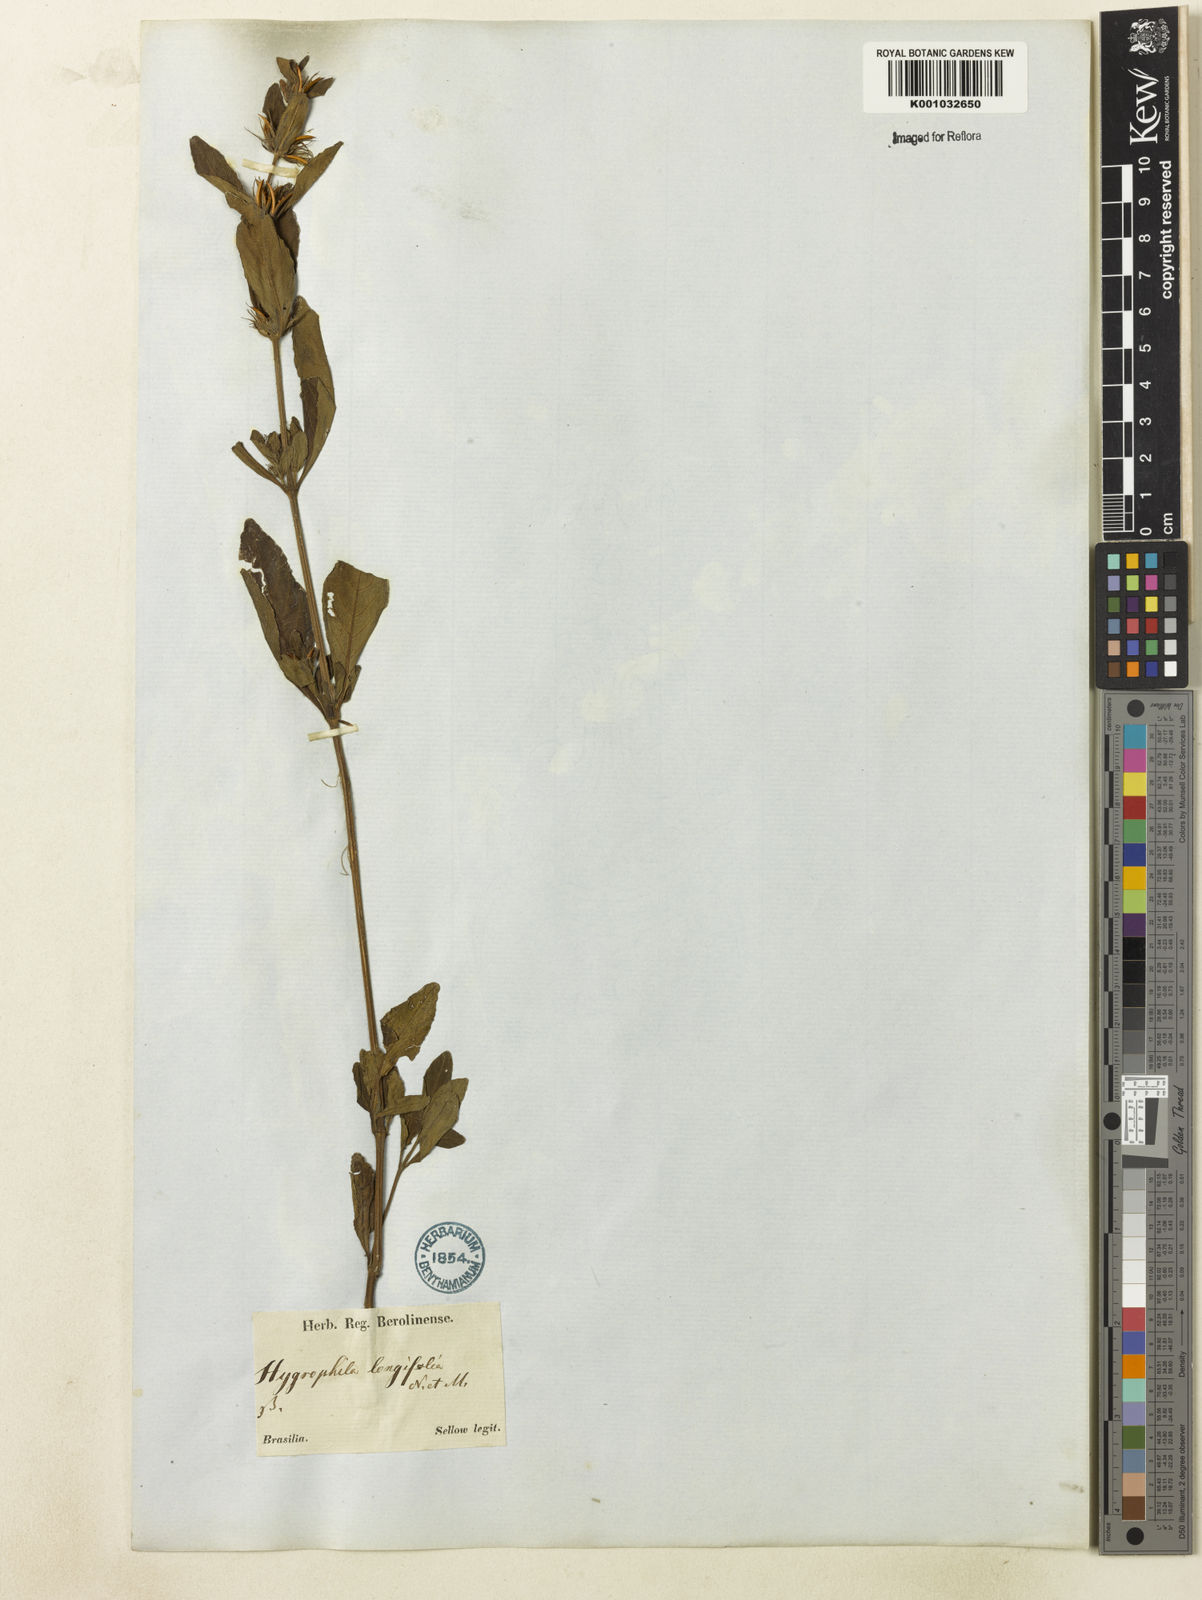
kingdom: Plantae
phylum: Tracheophyta
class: Magnoliopsida
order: Lamiales
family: Acanthaceae
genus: Hygrophila
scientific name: Hygrophila costata
